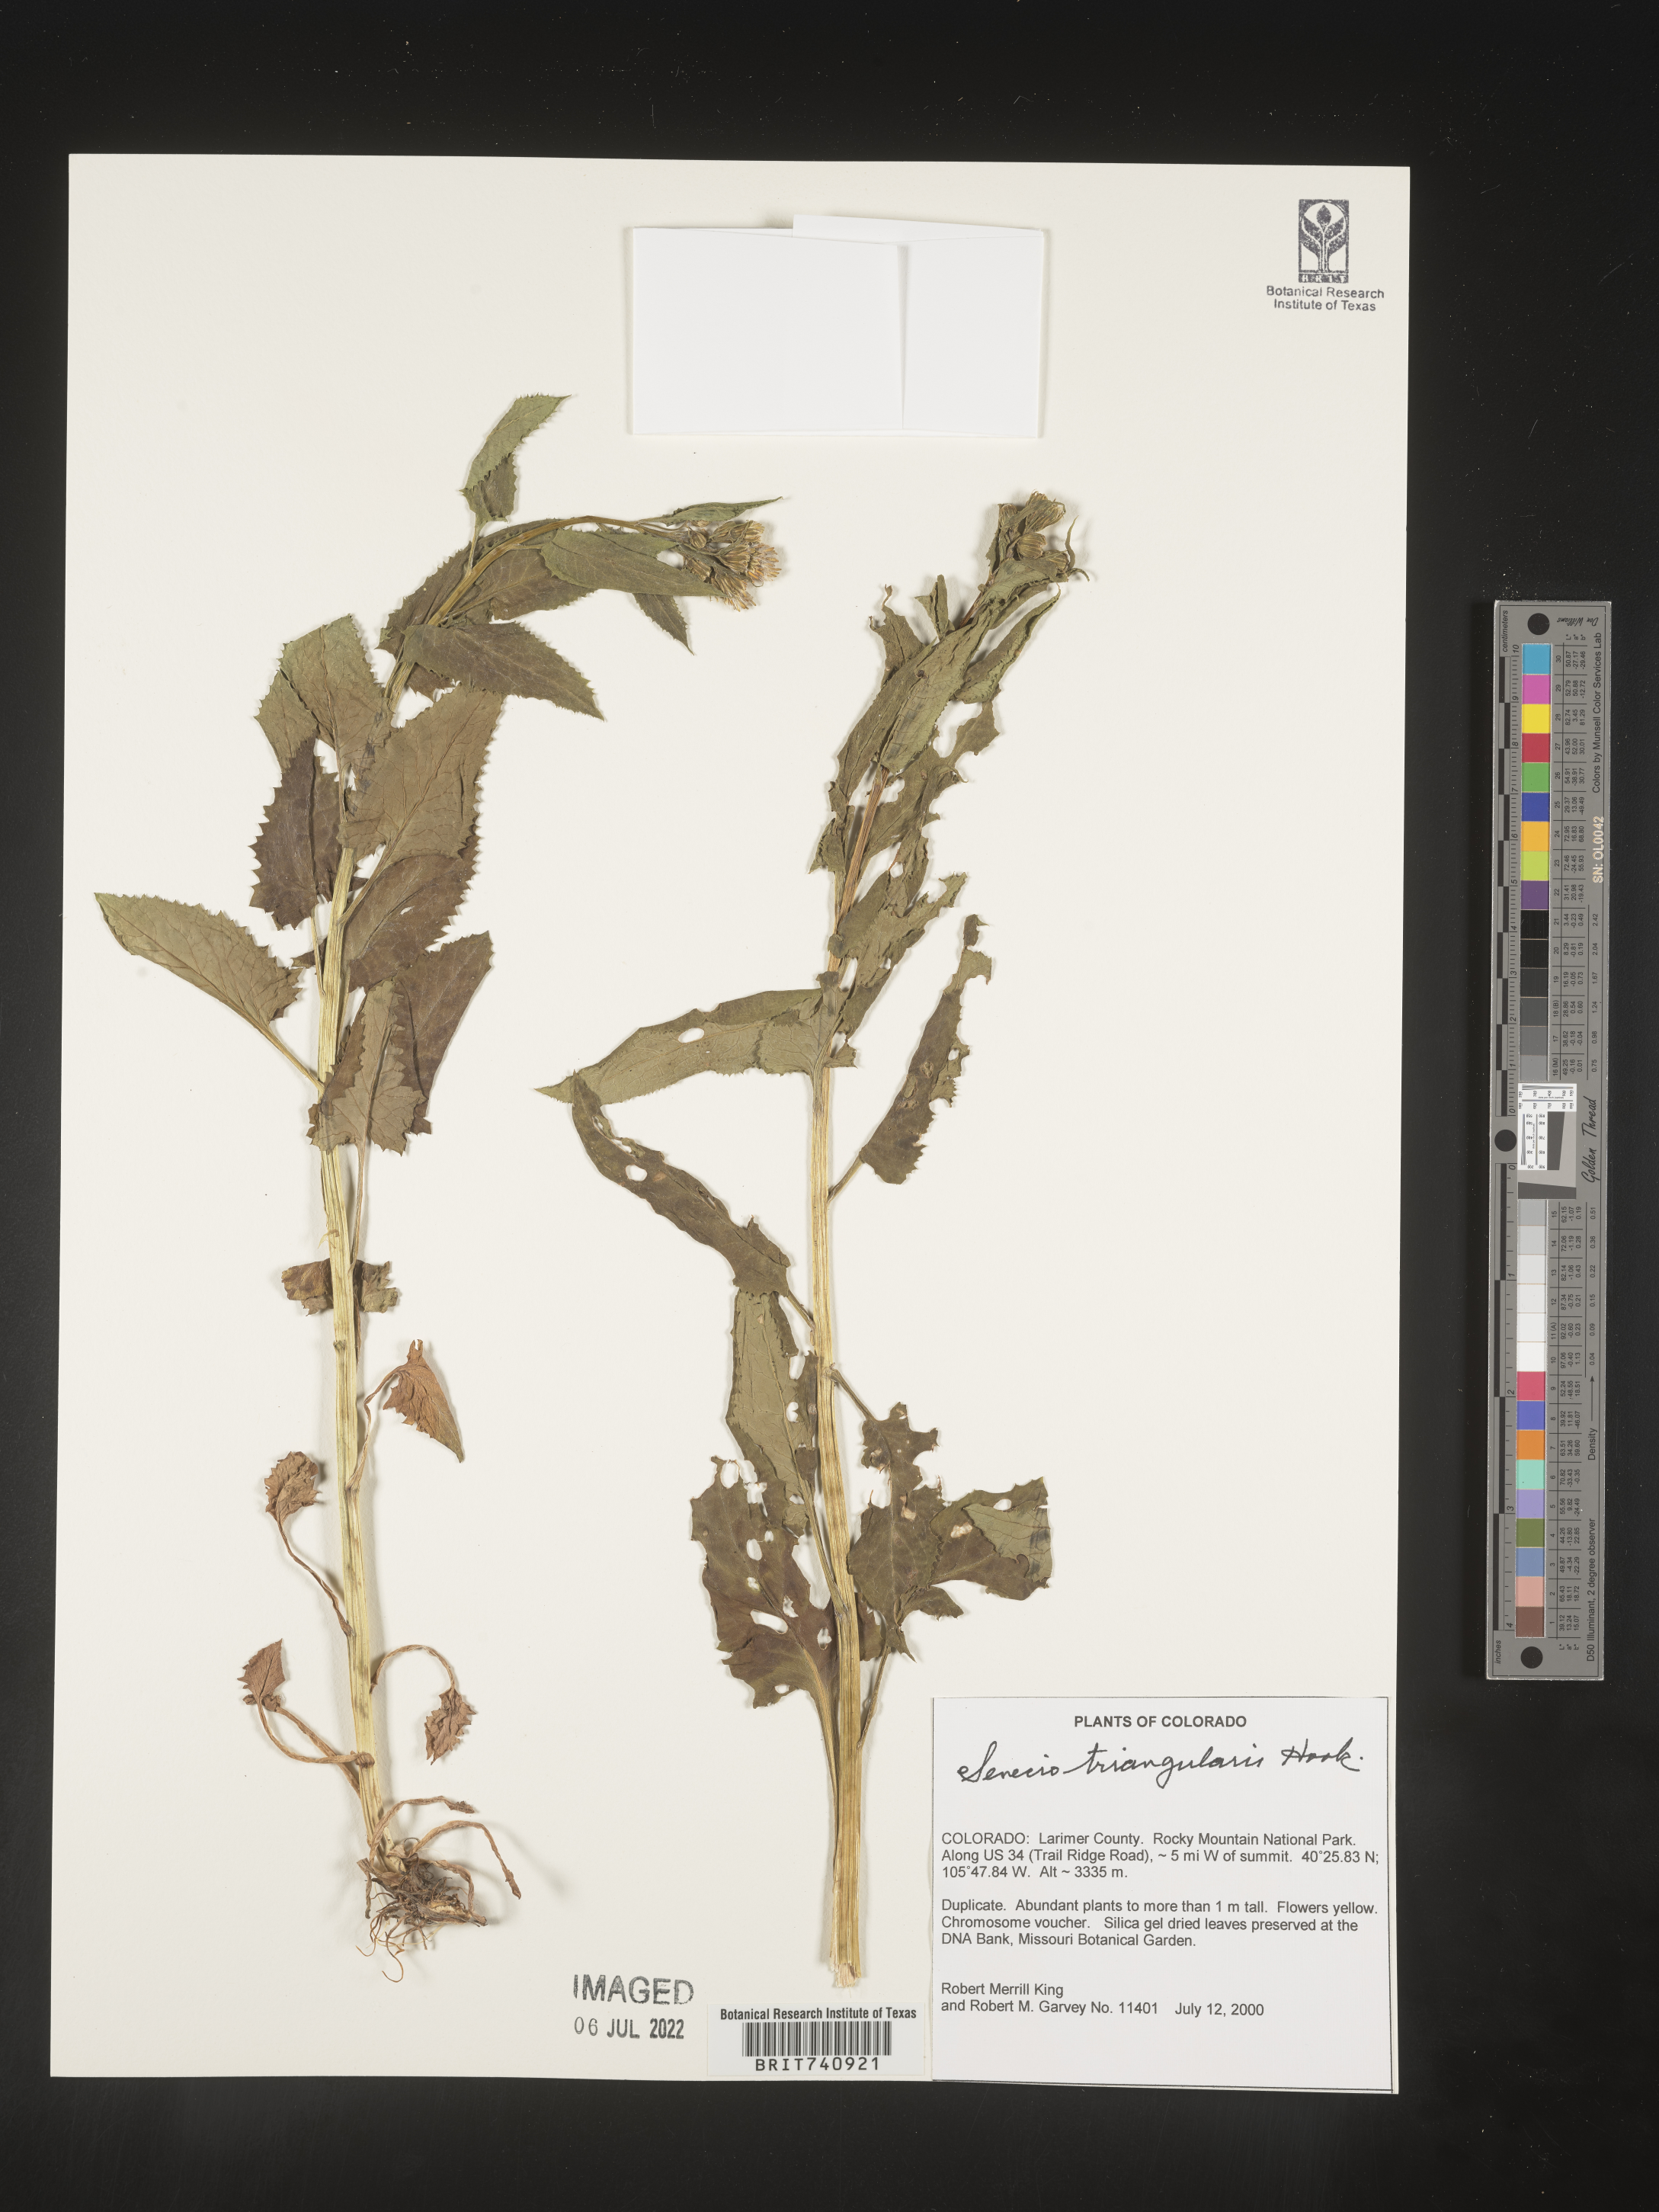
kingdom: Plantae
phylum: Tracheophyta
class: Magnoliopsida
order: Asterales
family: Asteraceae
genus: Senecio
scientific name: Senecio triangularis
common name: Arrowleaf butterweed
